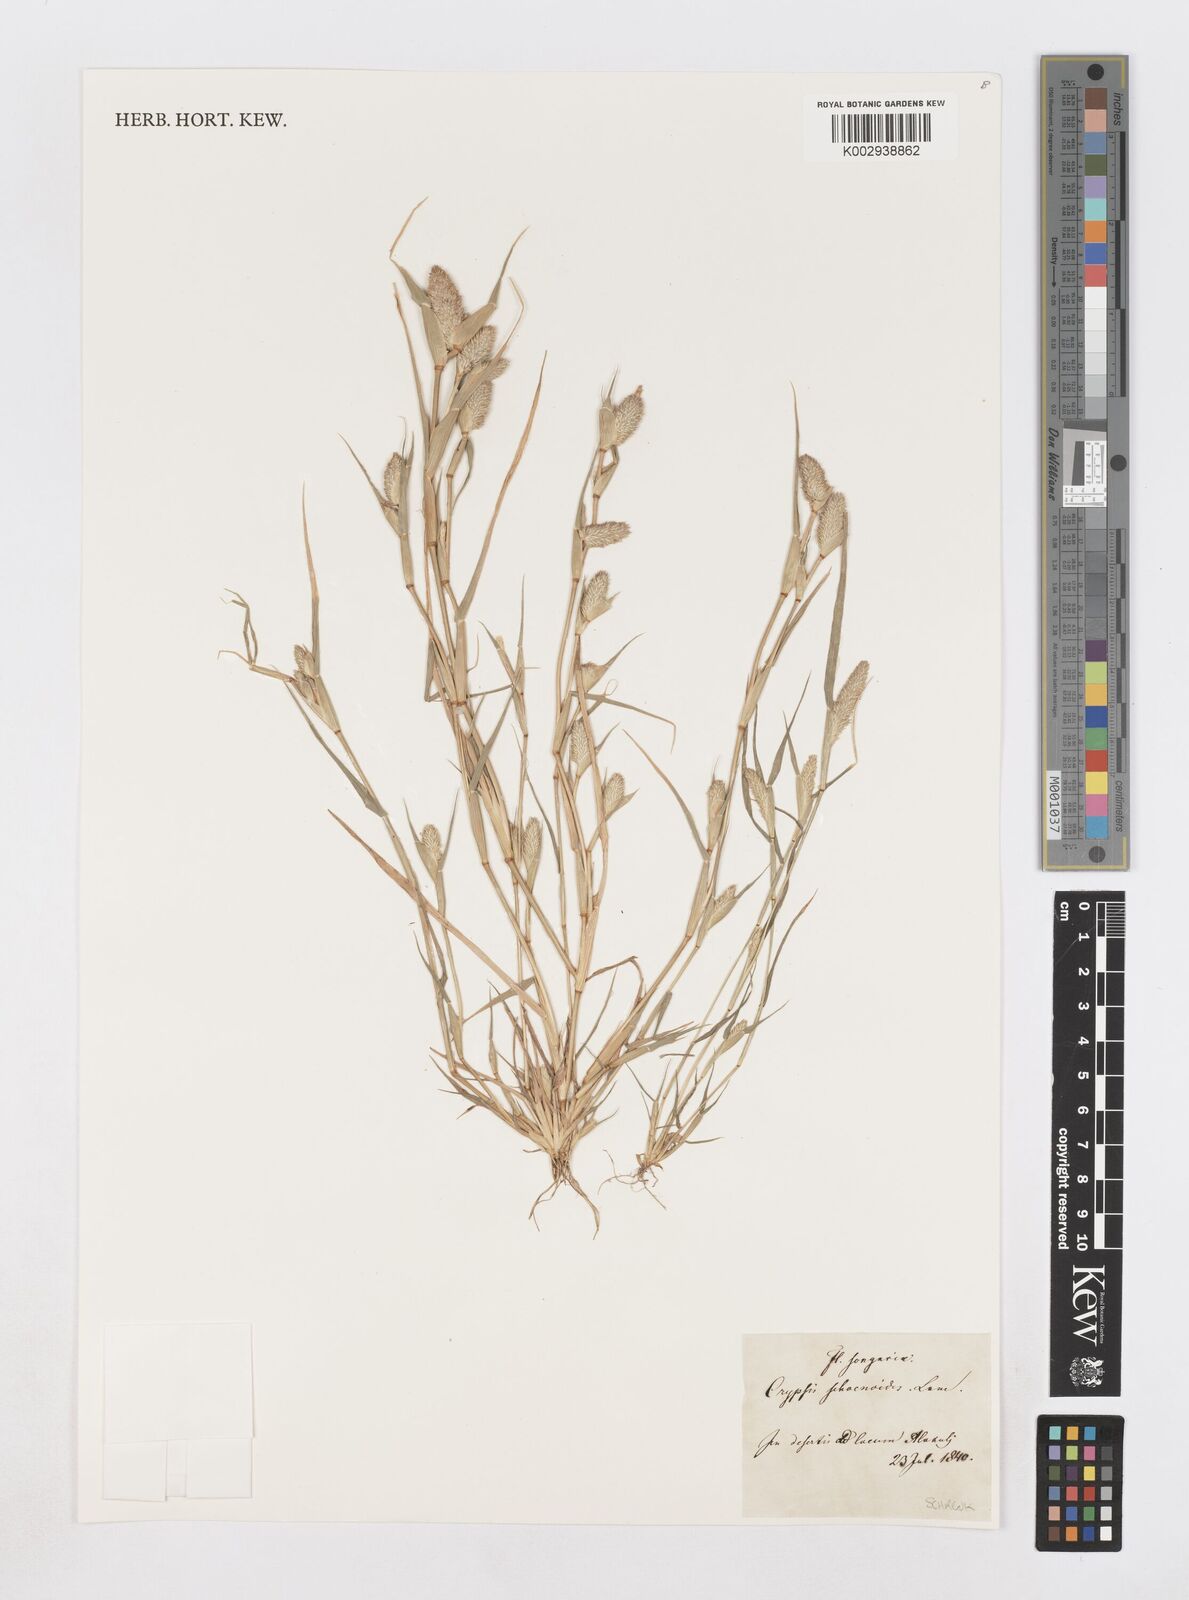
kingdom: Plantae
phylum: Tracheophyta
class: Liliopsida
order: Poales
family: Poaceae
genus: Sporobolus
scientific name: Sporobolus schoenoides
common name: Rush-like timothy
